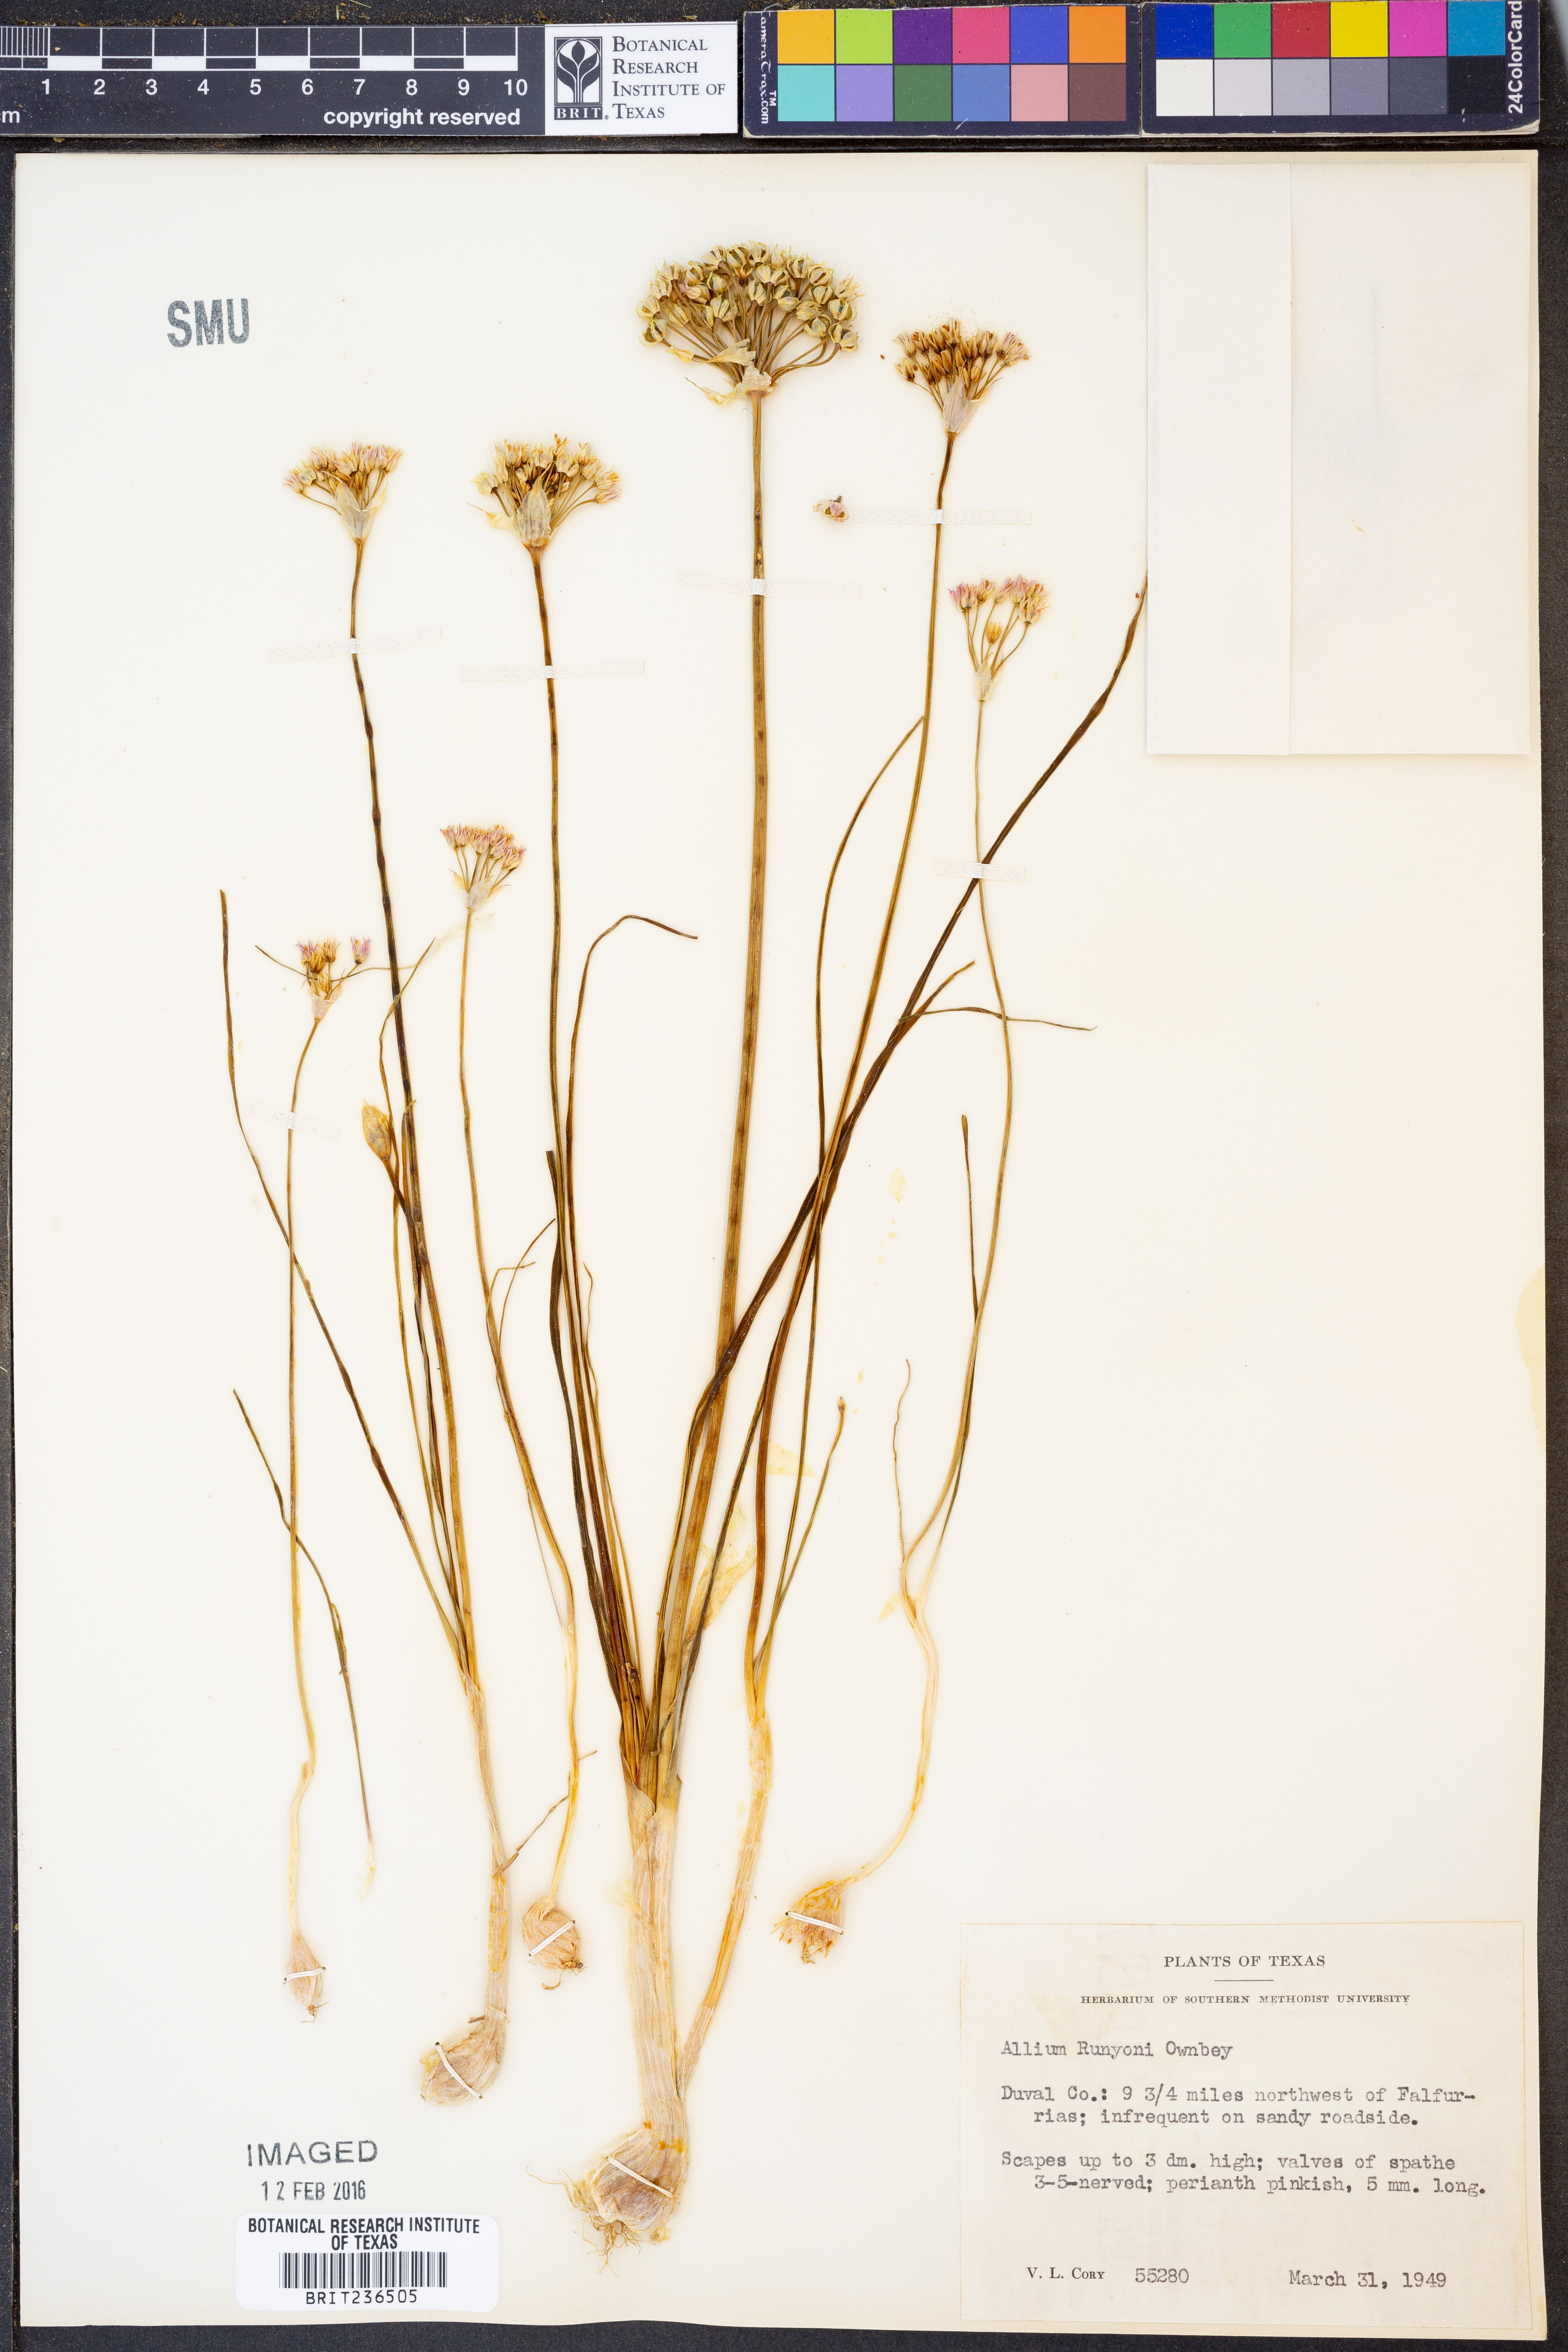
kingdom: Plantae
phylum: Tracheophyta
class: Liliopsida
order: Asparagales
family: Amaryllidaceae
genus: Allium
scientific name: Allium runyonii
